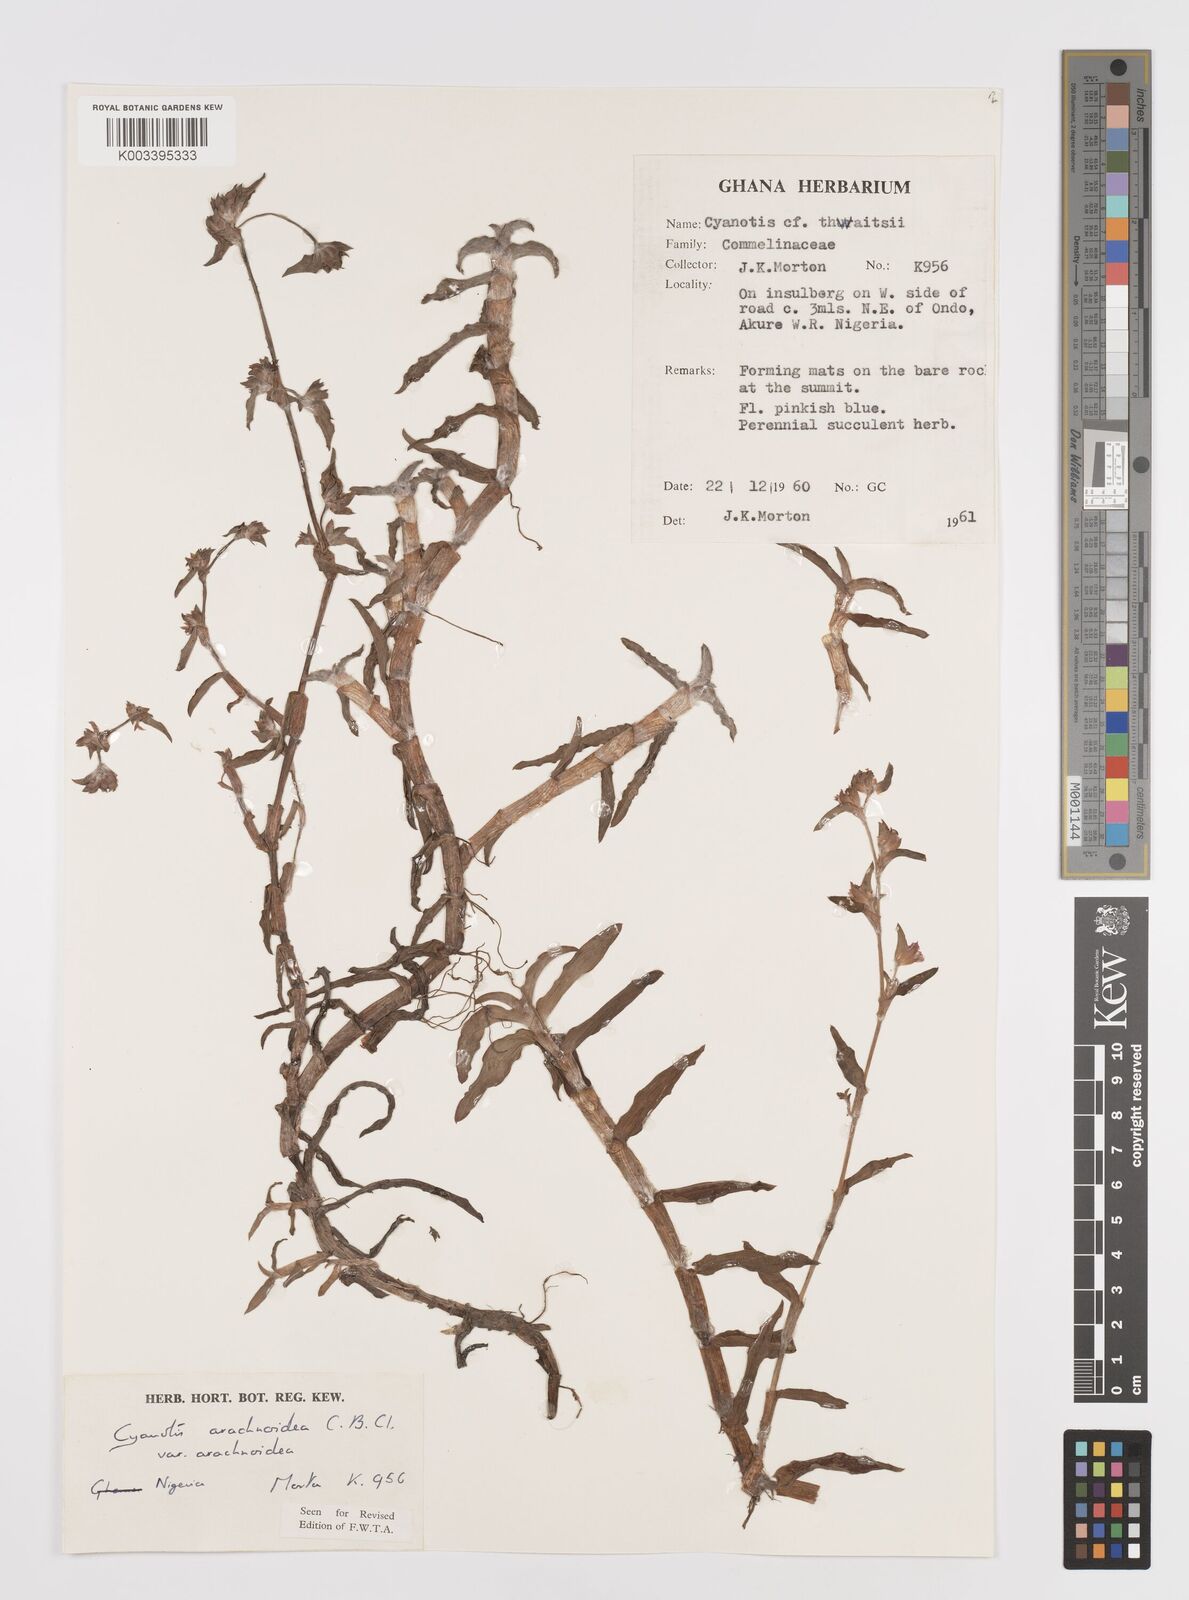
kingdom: Plantae
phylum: Tracheophyta
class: Liliopsida
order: Commelinales
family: Commelinaceae
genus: Cyanotis
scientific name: Cyanotis arachnoidea
